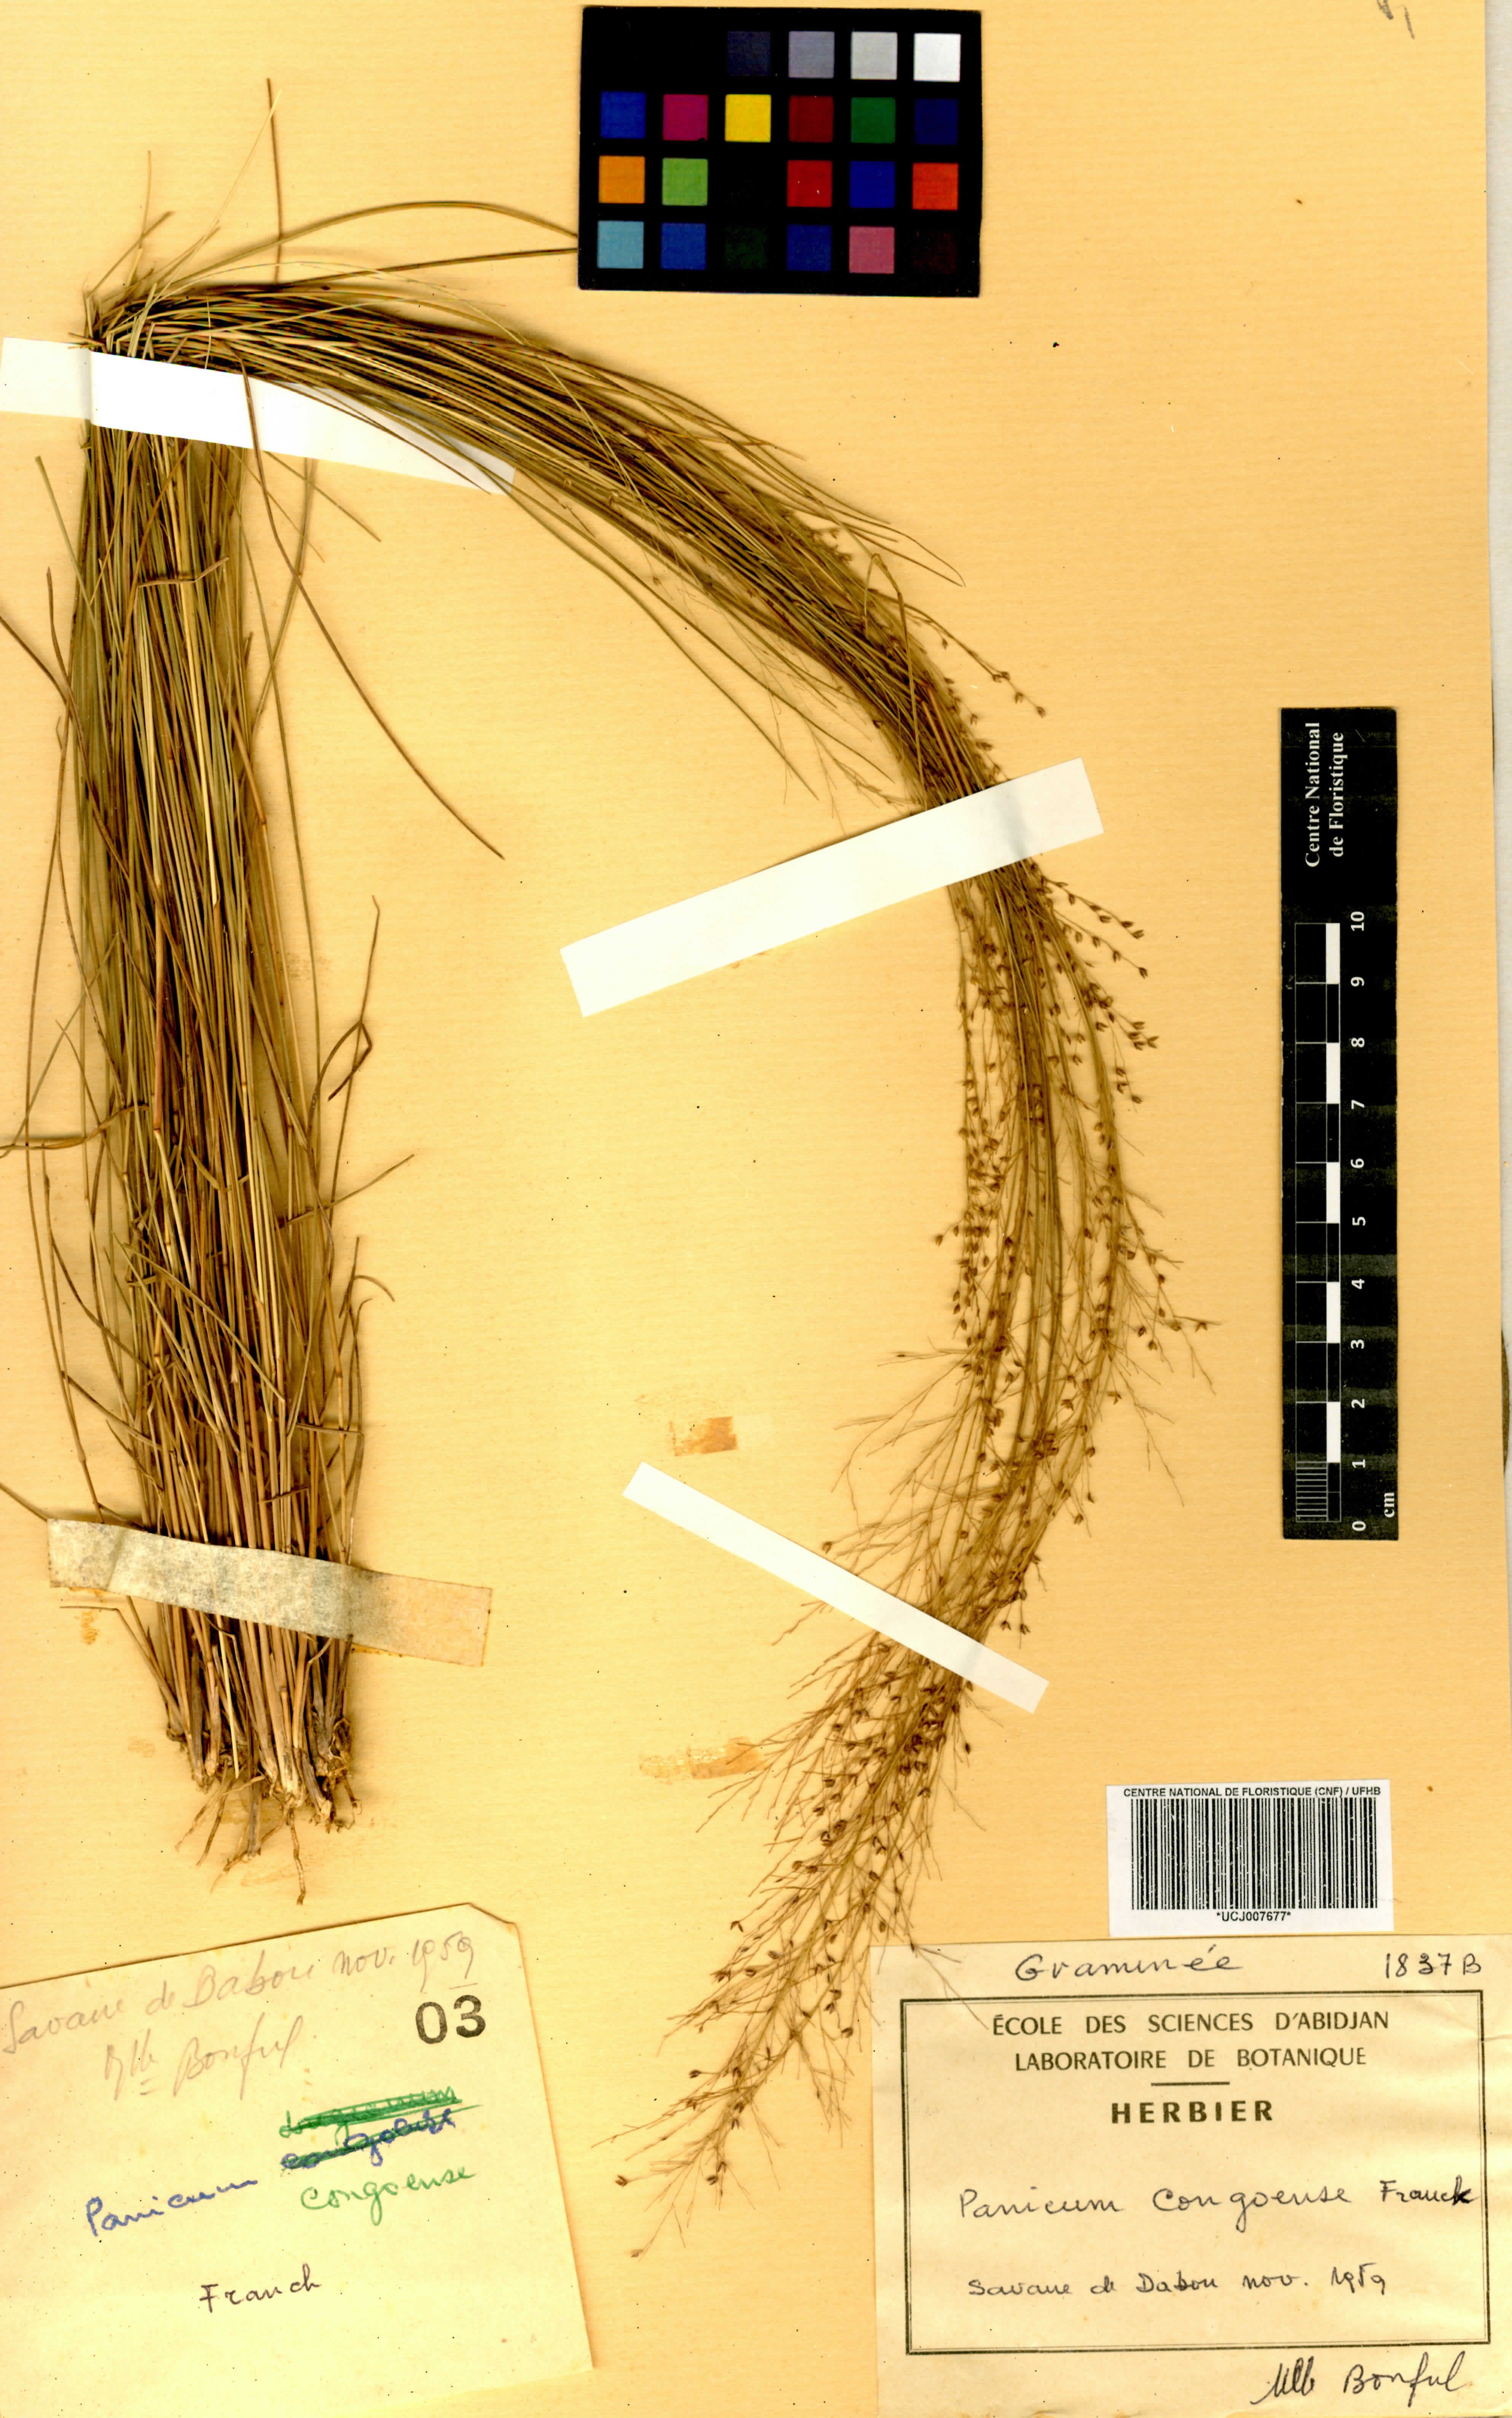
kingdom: Plantae
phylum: Tracheophyta
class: Liliopsida
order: Poales
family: Poaceae
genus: Panicum
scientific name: Panicum congoense
